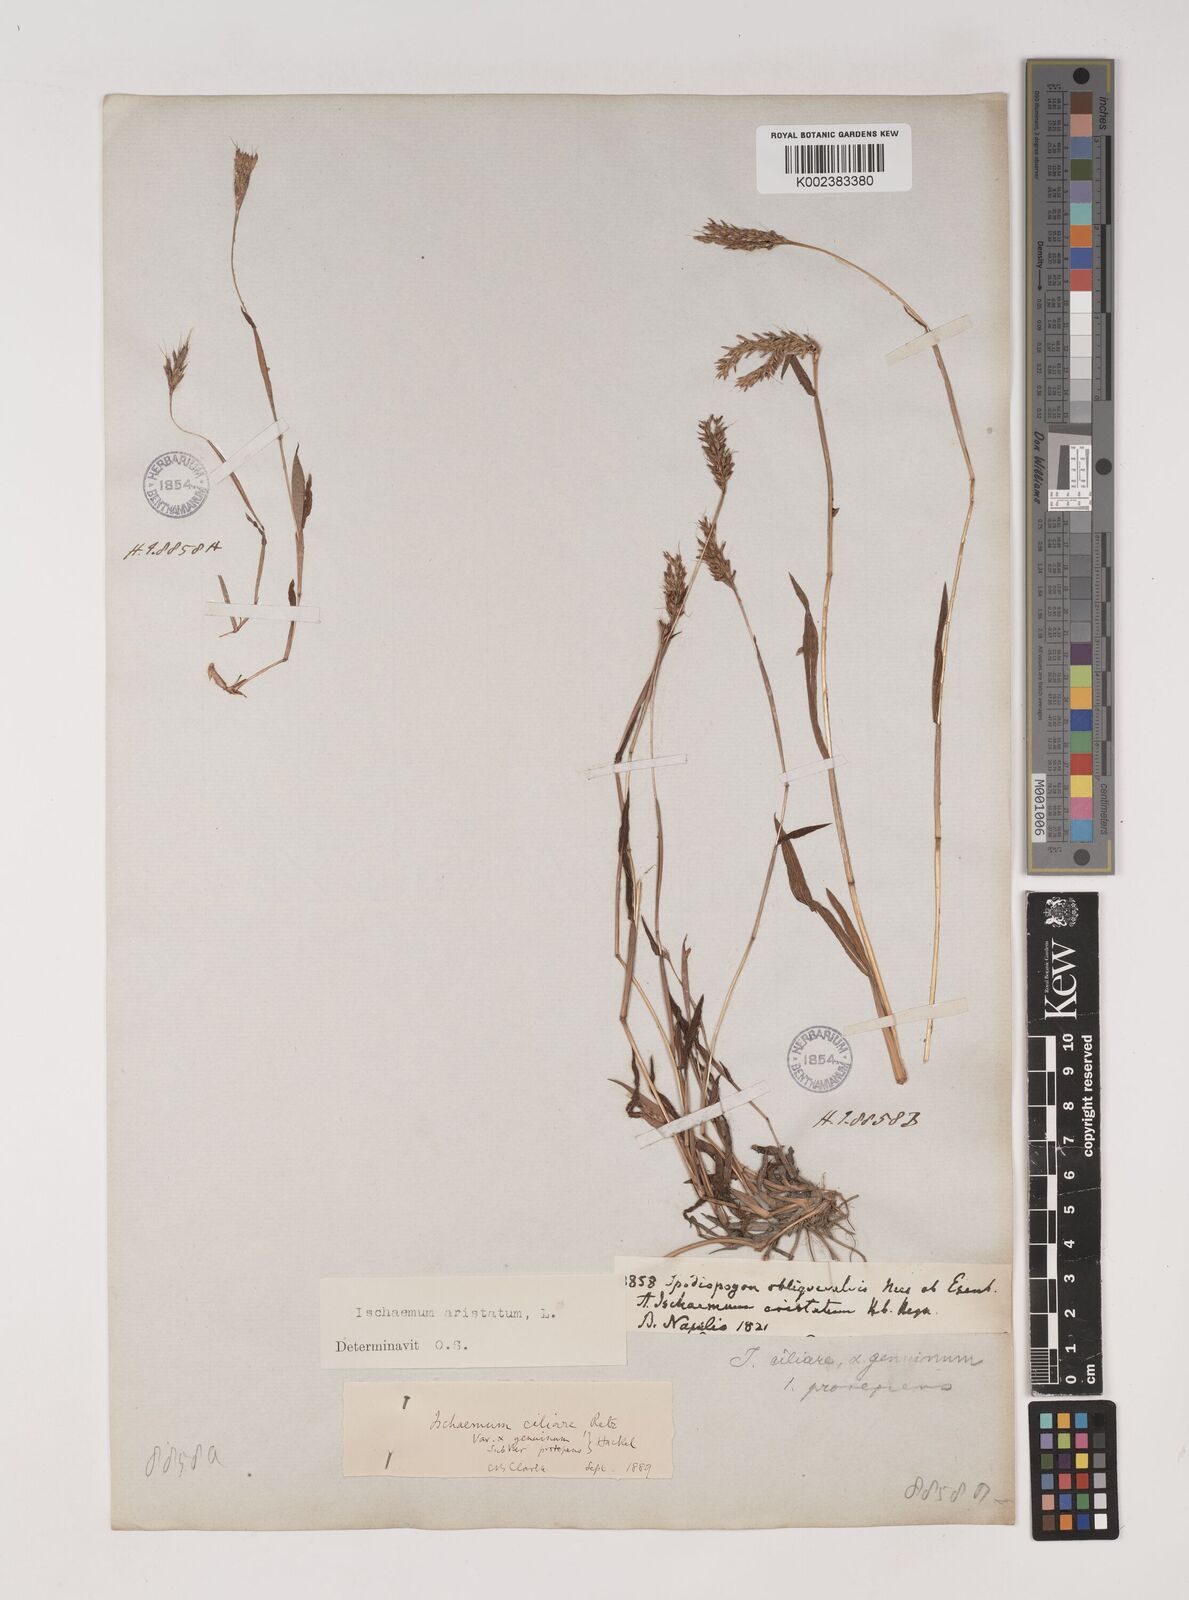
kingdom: Plantae
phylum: Tracheophyta
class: Liliopsida
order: Poales
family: Poaceae
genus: Polytrias
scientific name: Polytrias indica
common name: Indian murainagrass
